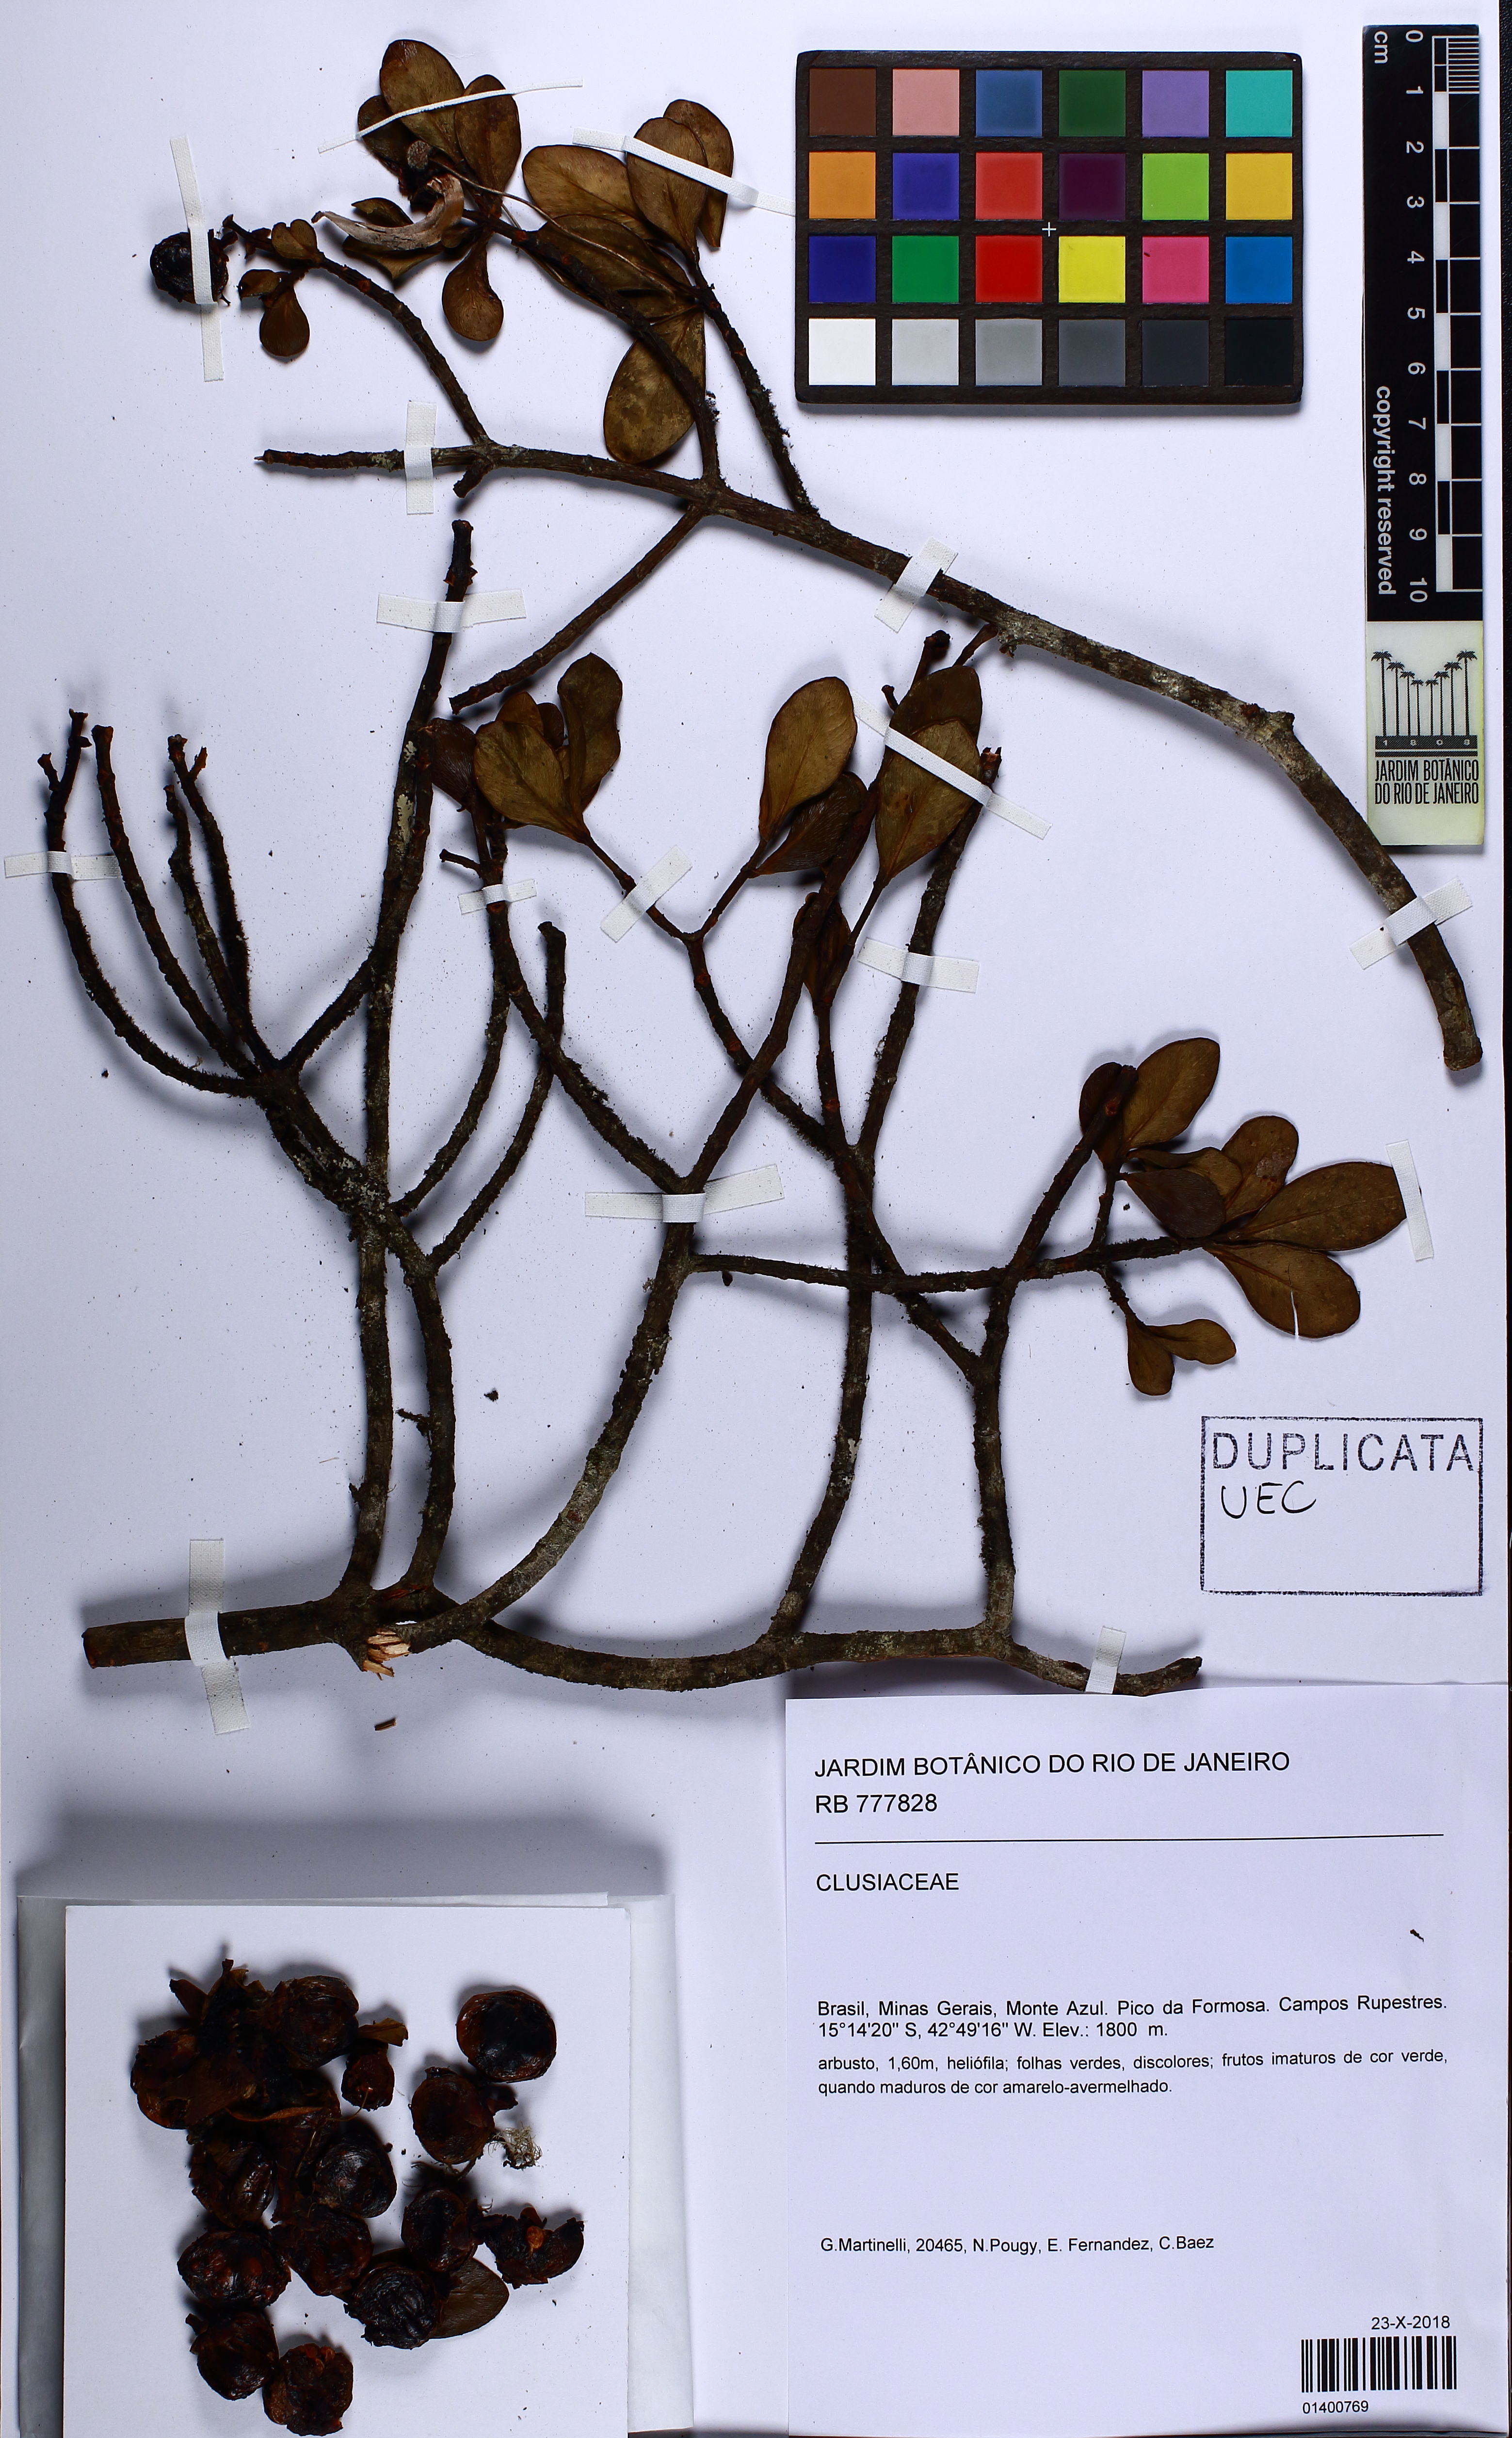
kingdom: Plantae
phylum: Tracheophyta
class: Magnoliopsida
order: Malpighiales
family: Clusiaceae
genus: Clusia
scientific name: Clusia criuva
